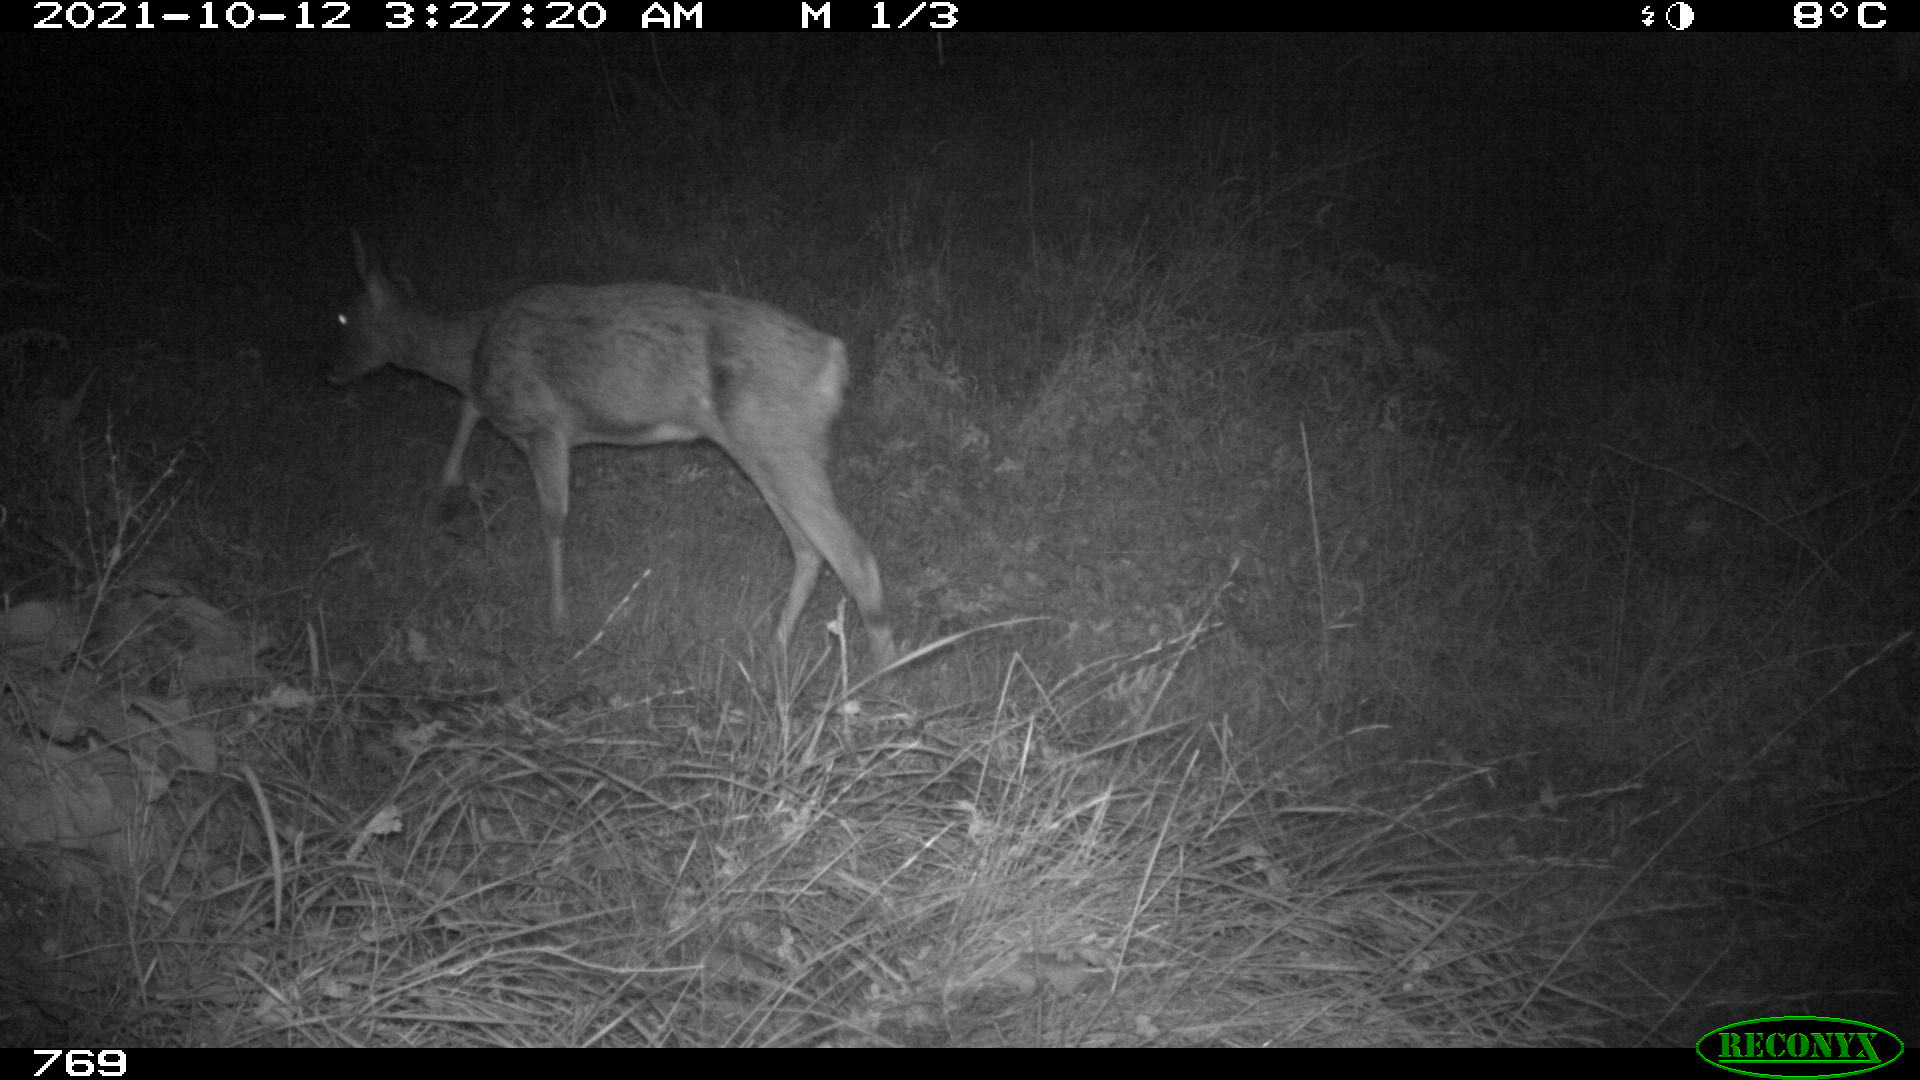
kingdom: Animalia
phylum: Chordata
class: Mammalia
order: Artiodactyla
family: Cervidae
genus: Capreolus
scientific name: Capreolus capreolus
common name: Western roe deer
